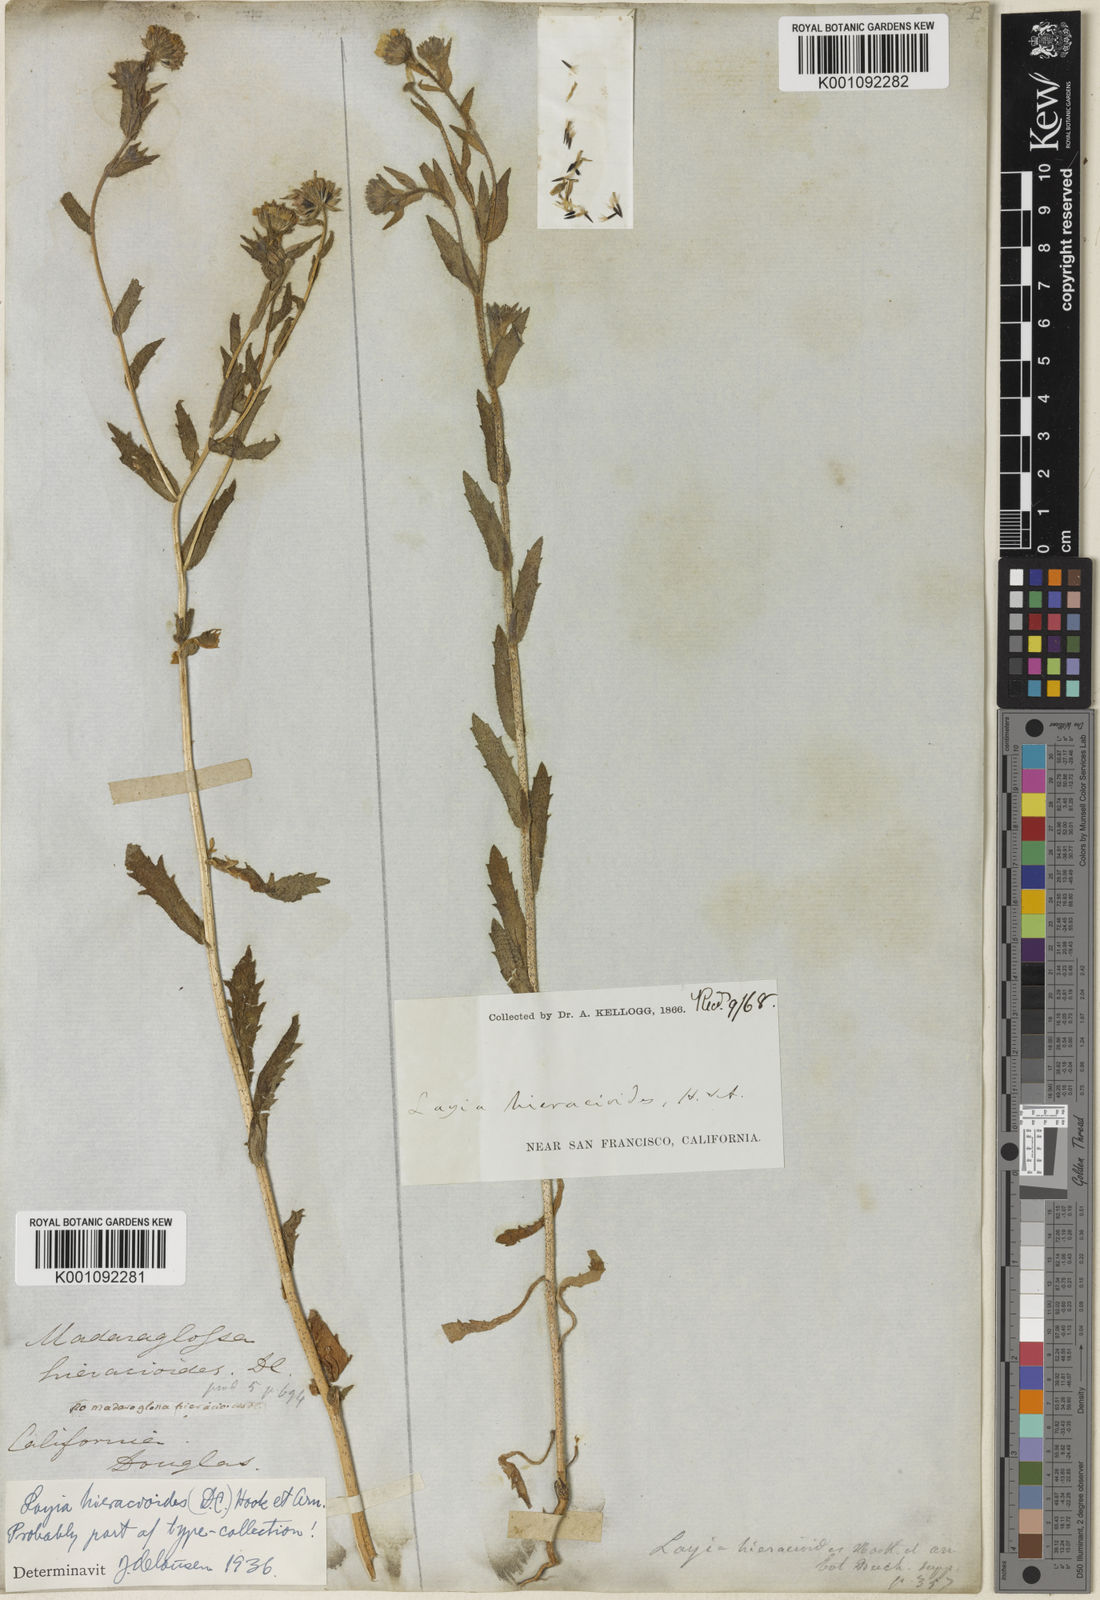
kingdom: Plantae
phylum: Tracheophyta
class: Magnoliopsida
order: Asterales
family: Asteraceae
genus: Layia
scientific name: Layia hieracioides
